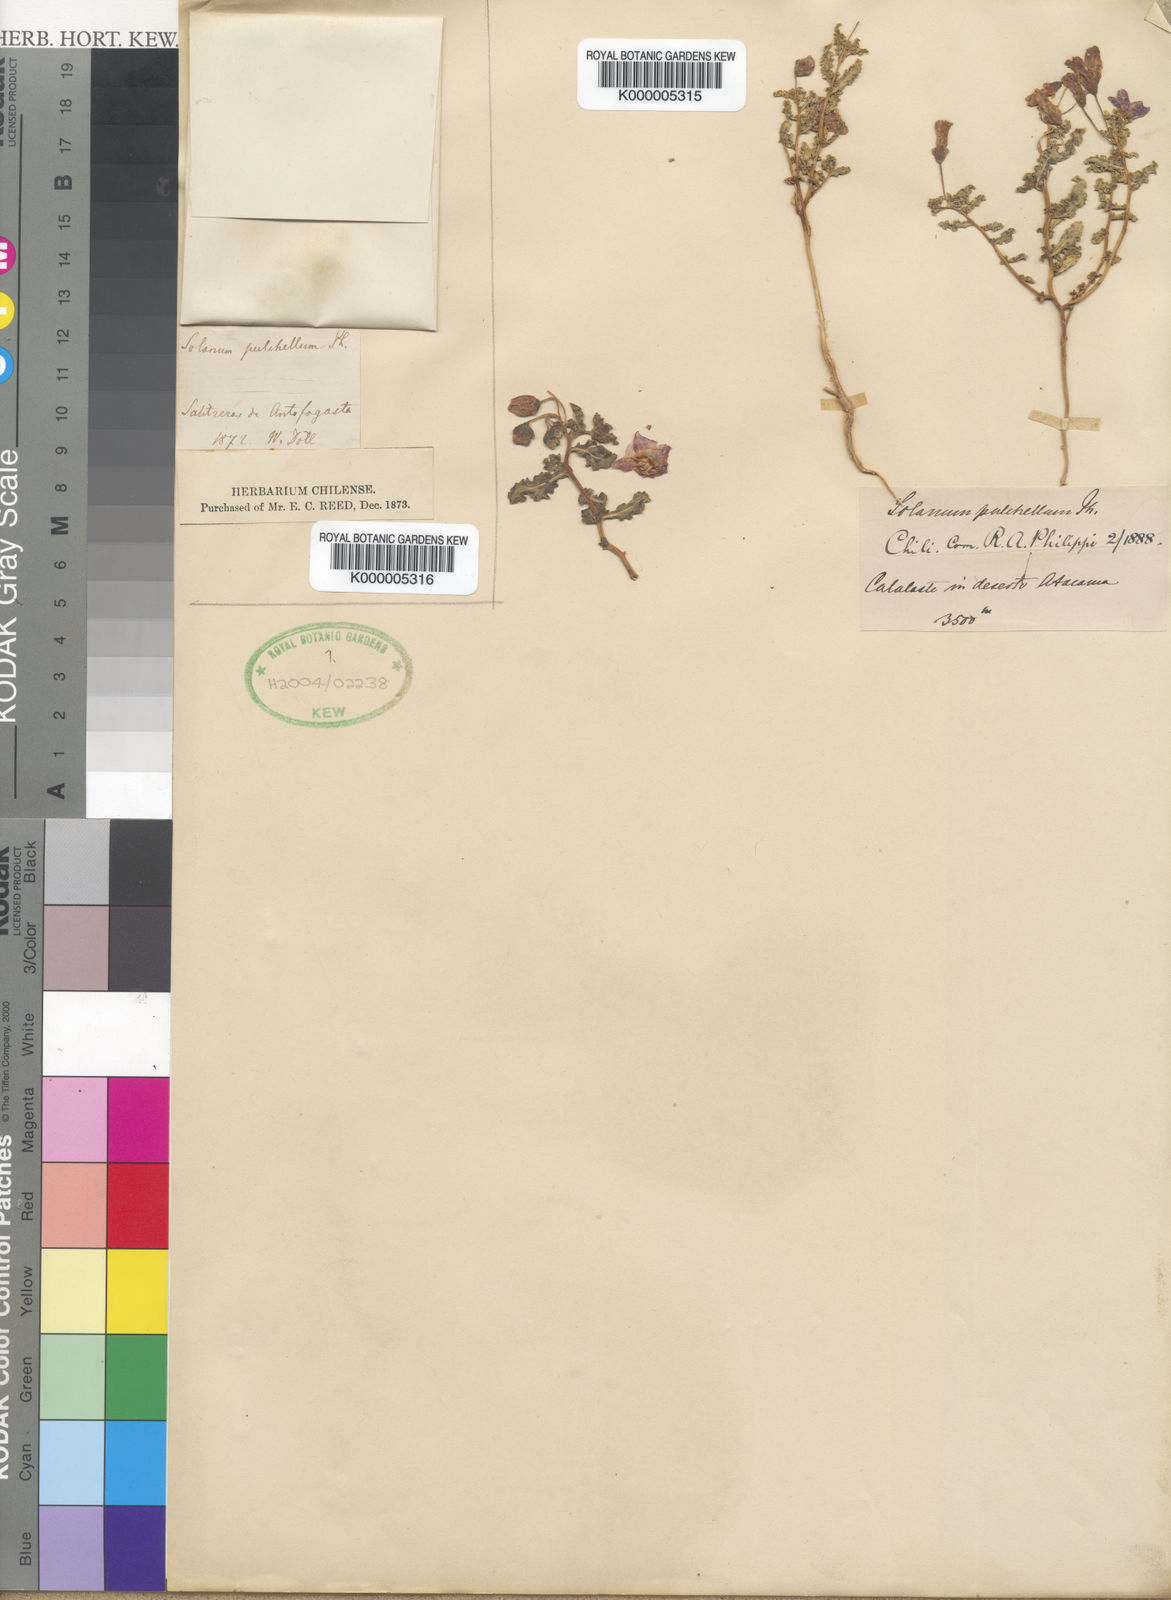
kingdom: Plantae
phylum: Tracheophyta
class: Magnoliopsida
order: Solanales
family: Solanaceae
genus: Solanum
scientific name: Solanum sinuatirecurvum
